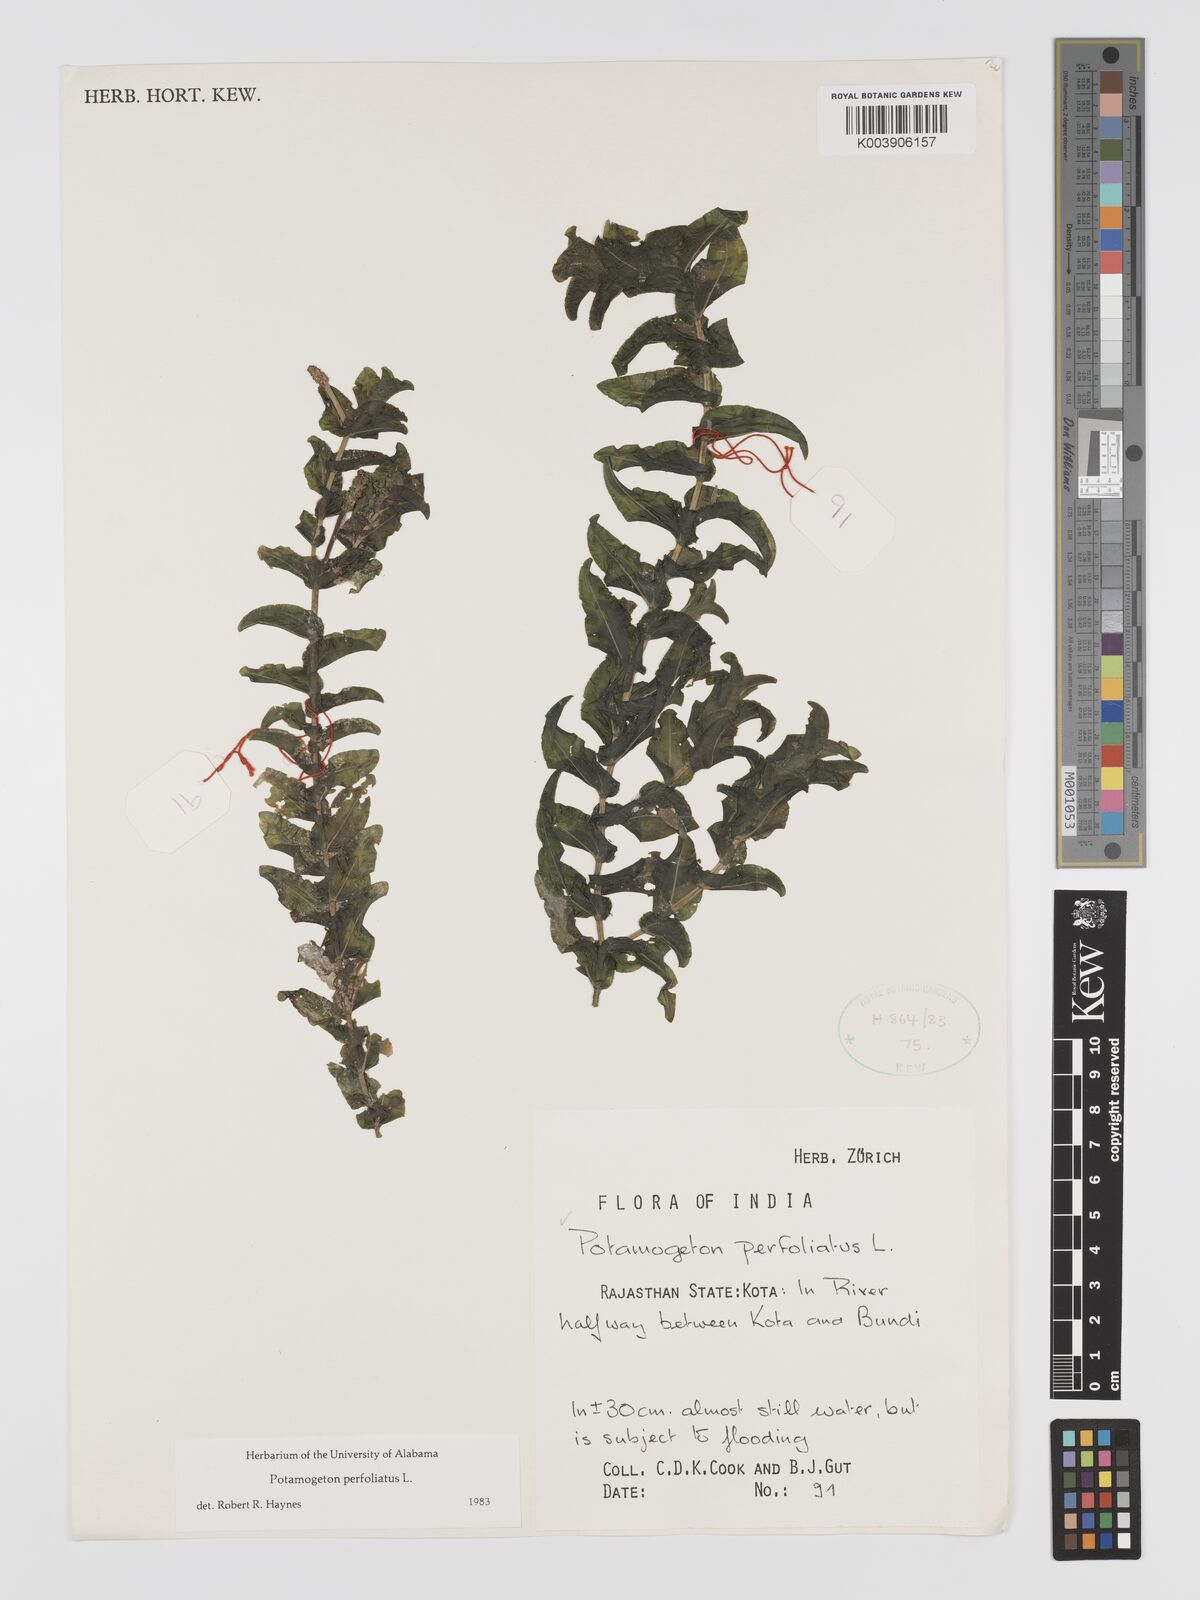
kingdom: Plantae
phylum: Tracheophyta
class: Liliopsida
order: Alismatales
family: Potamogetonaceae
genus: Stuckenia
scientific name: Stuckenia pectinata
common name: Sago pondweed
